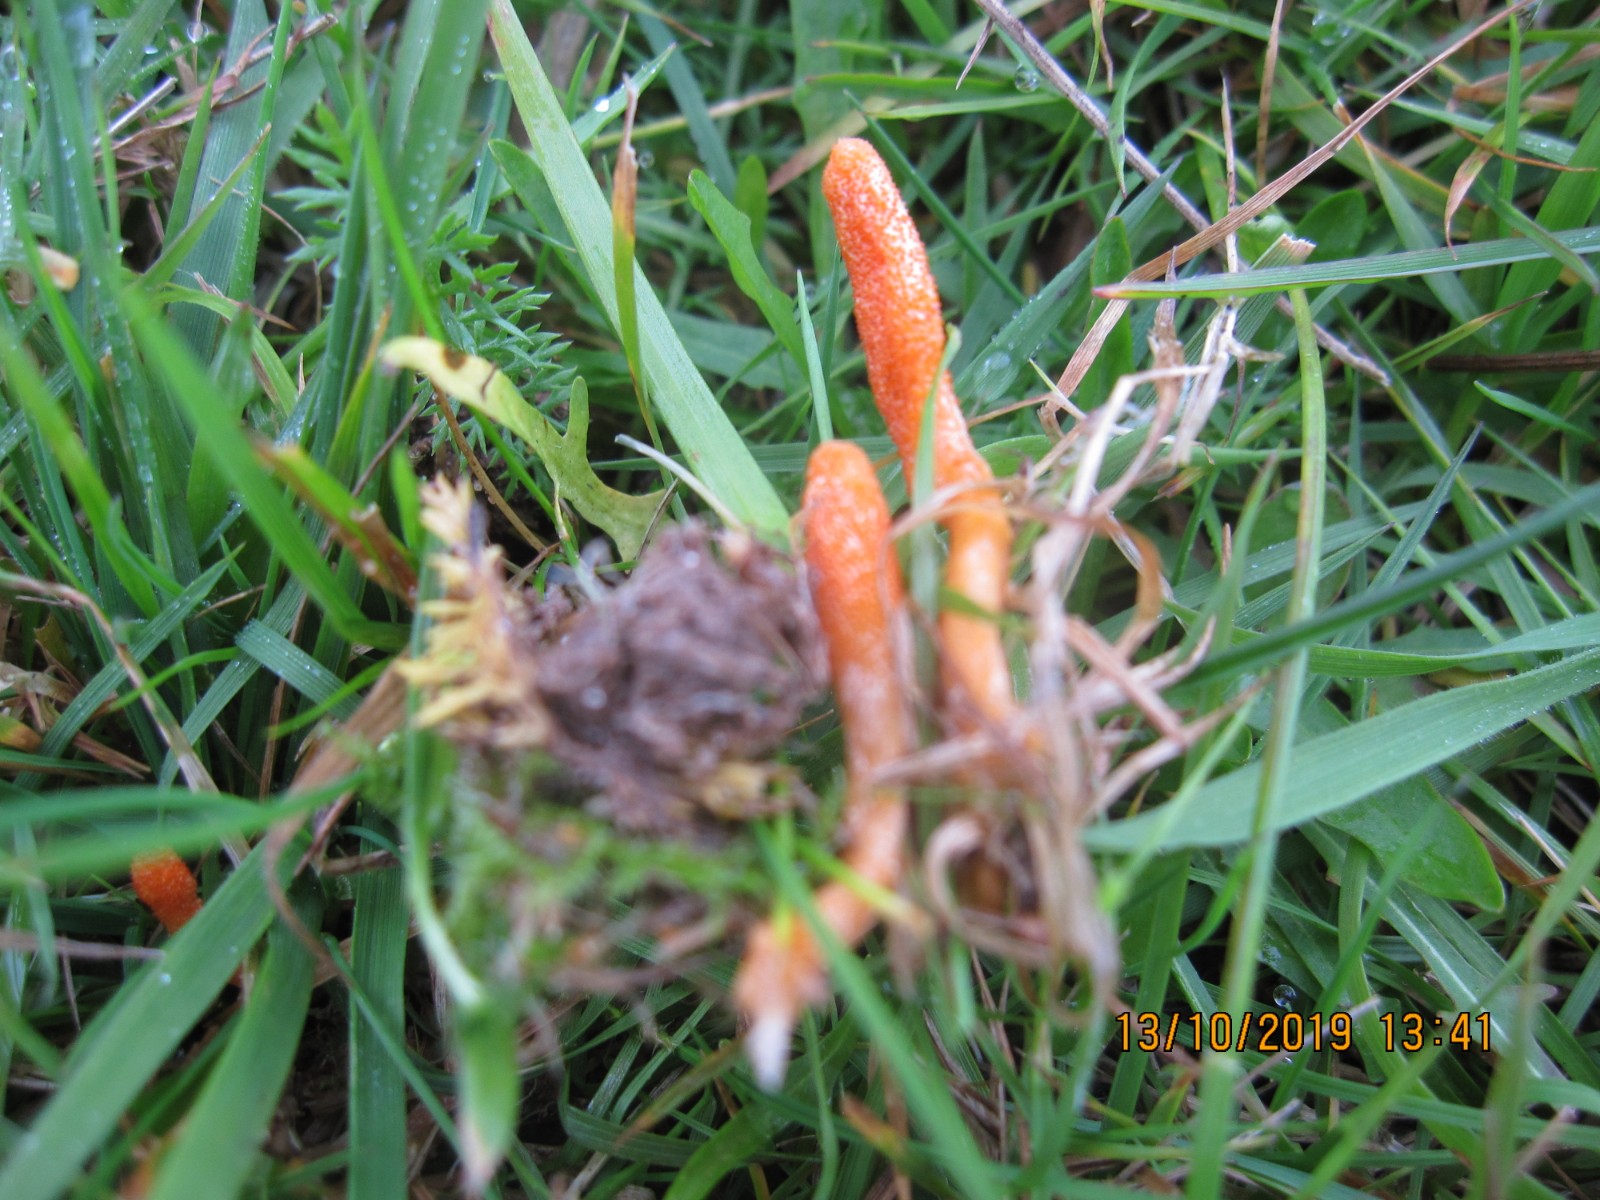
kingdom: Fungi
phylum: Ascomycota
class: Sordariomycetes
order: Hypocreales
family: Cordycipitaceae
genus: Cordyceps
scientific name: Cordyceps militaris
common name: puppe-snyltekølle
